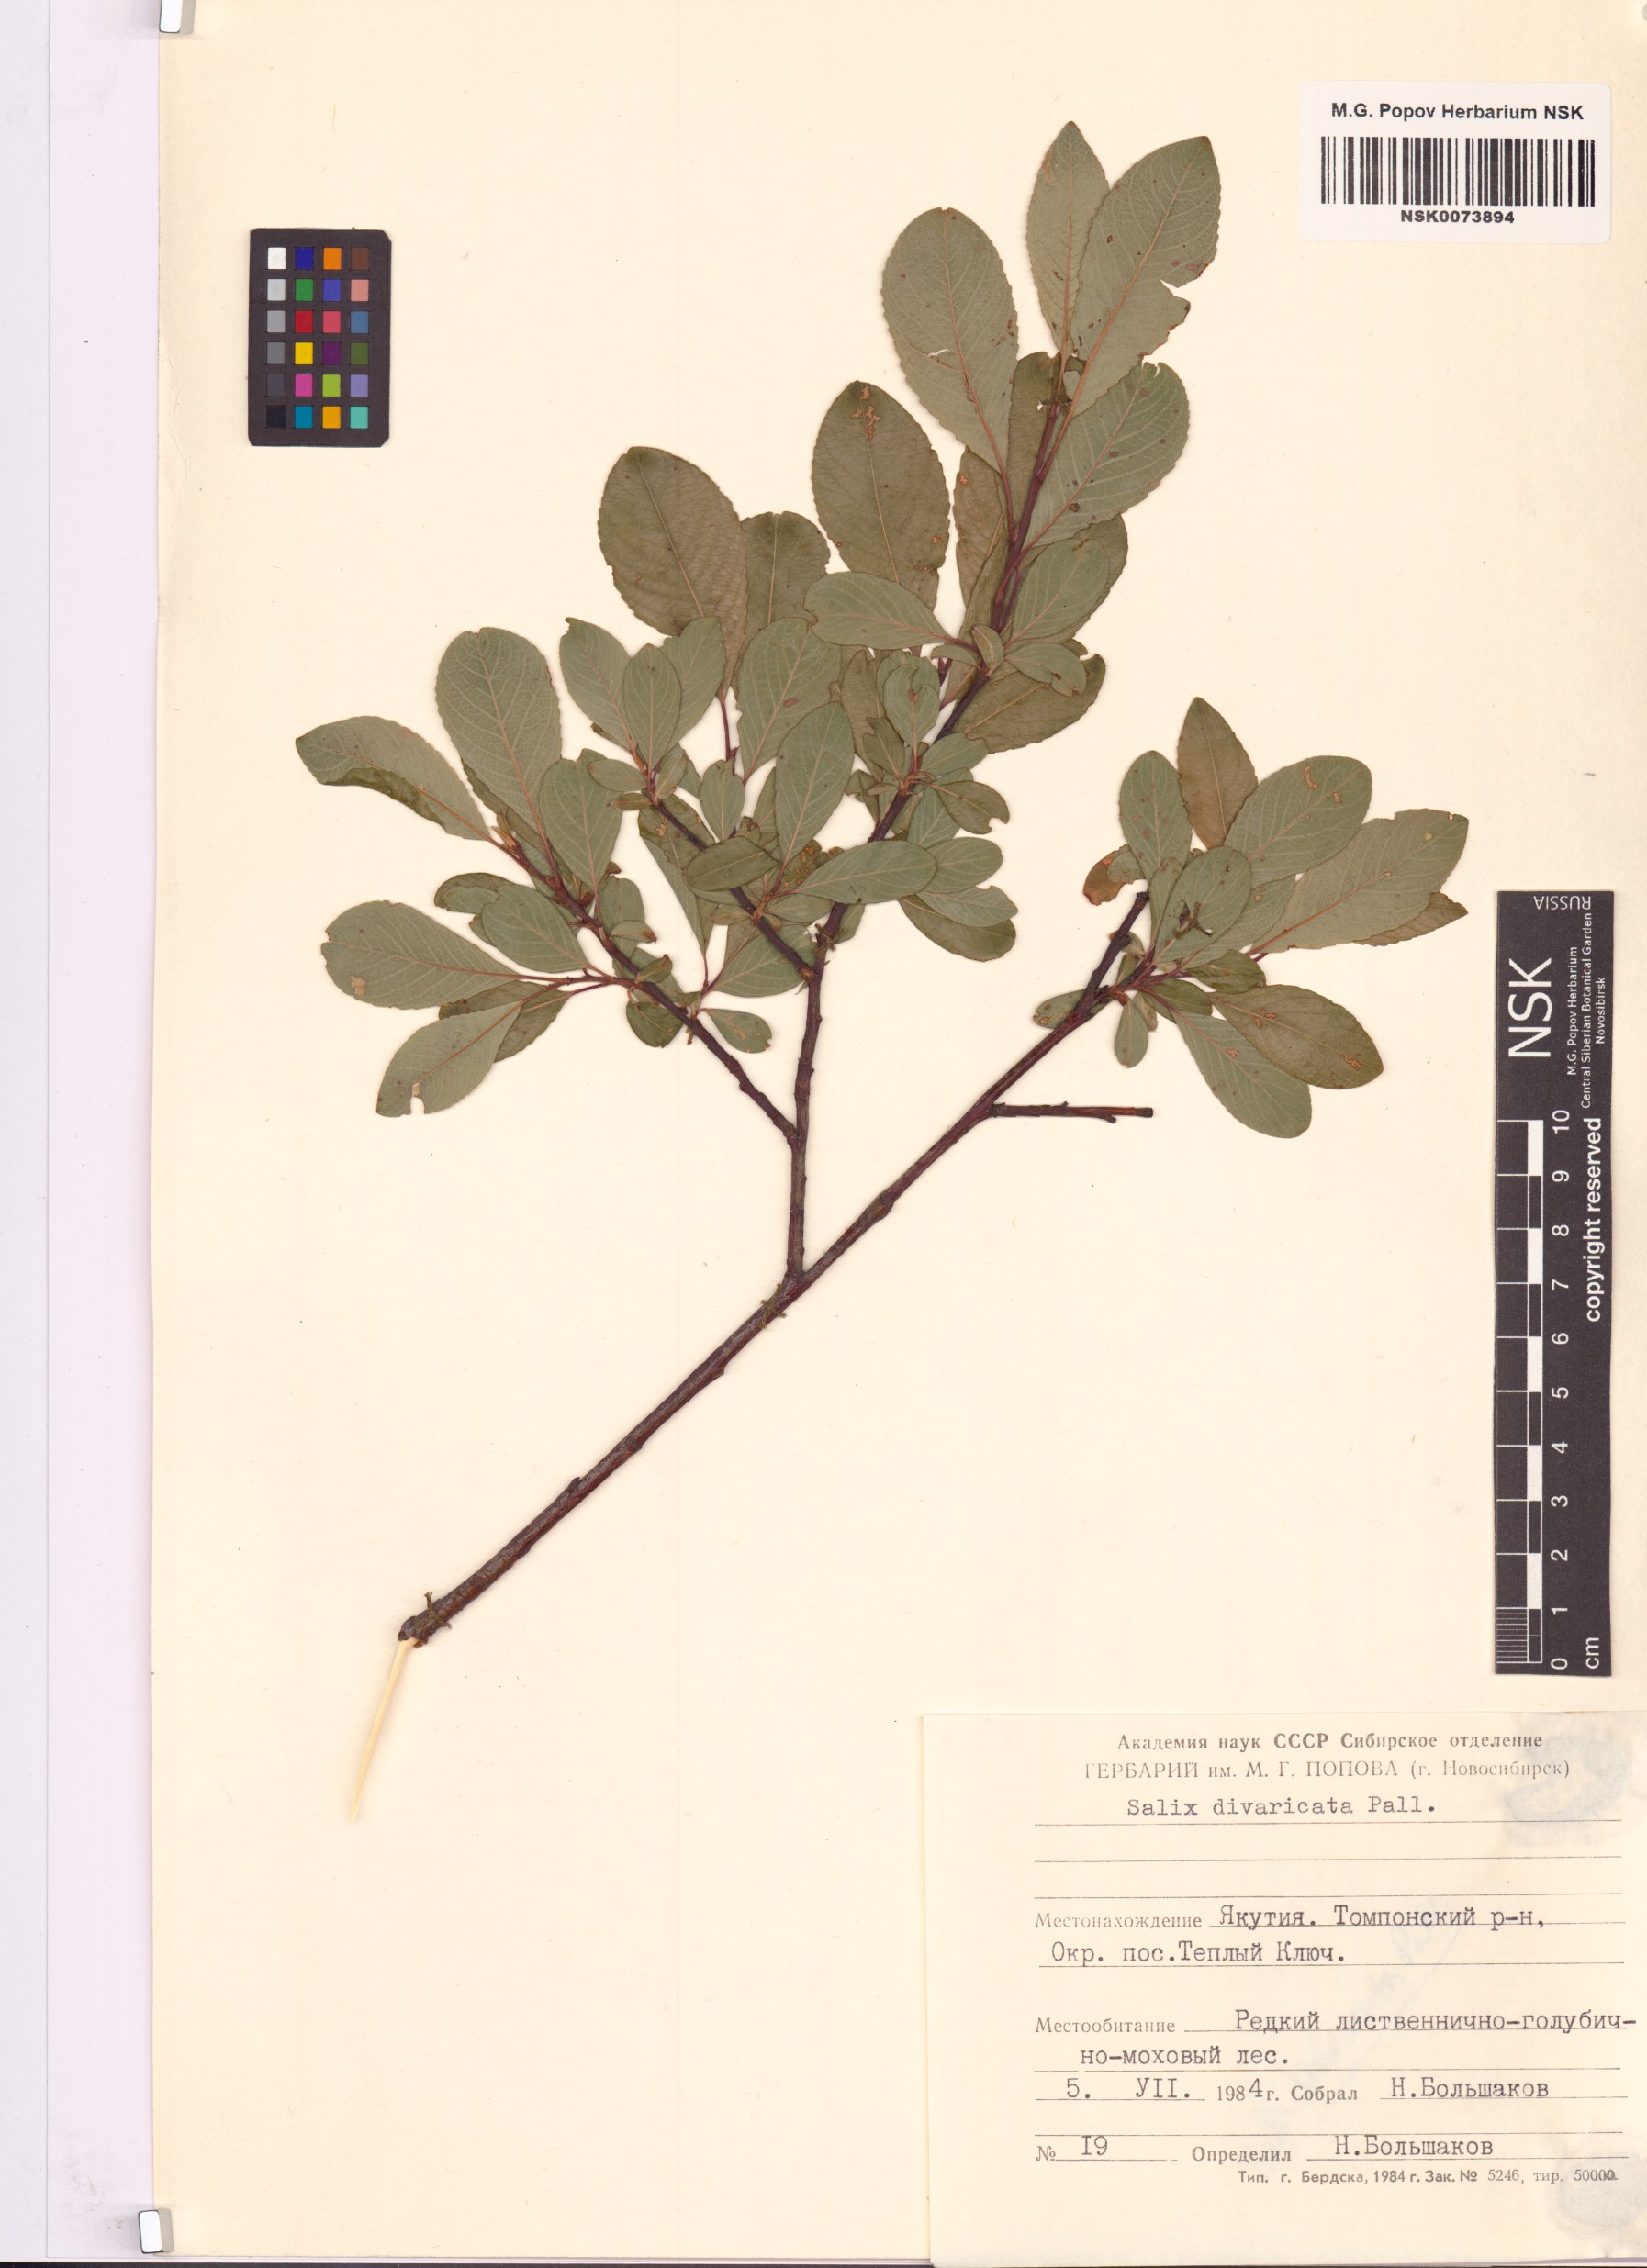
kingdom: Plantae
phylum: Tracheophyta
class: Magnoliopsida
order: Malpighiales
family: Salicaceae
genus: Salix
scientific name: Salix divaricata
